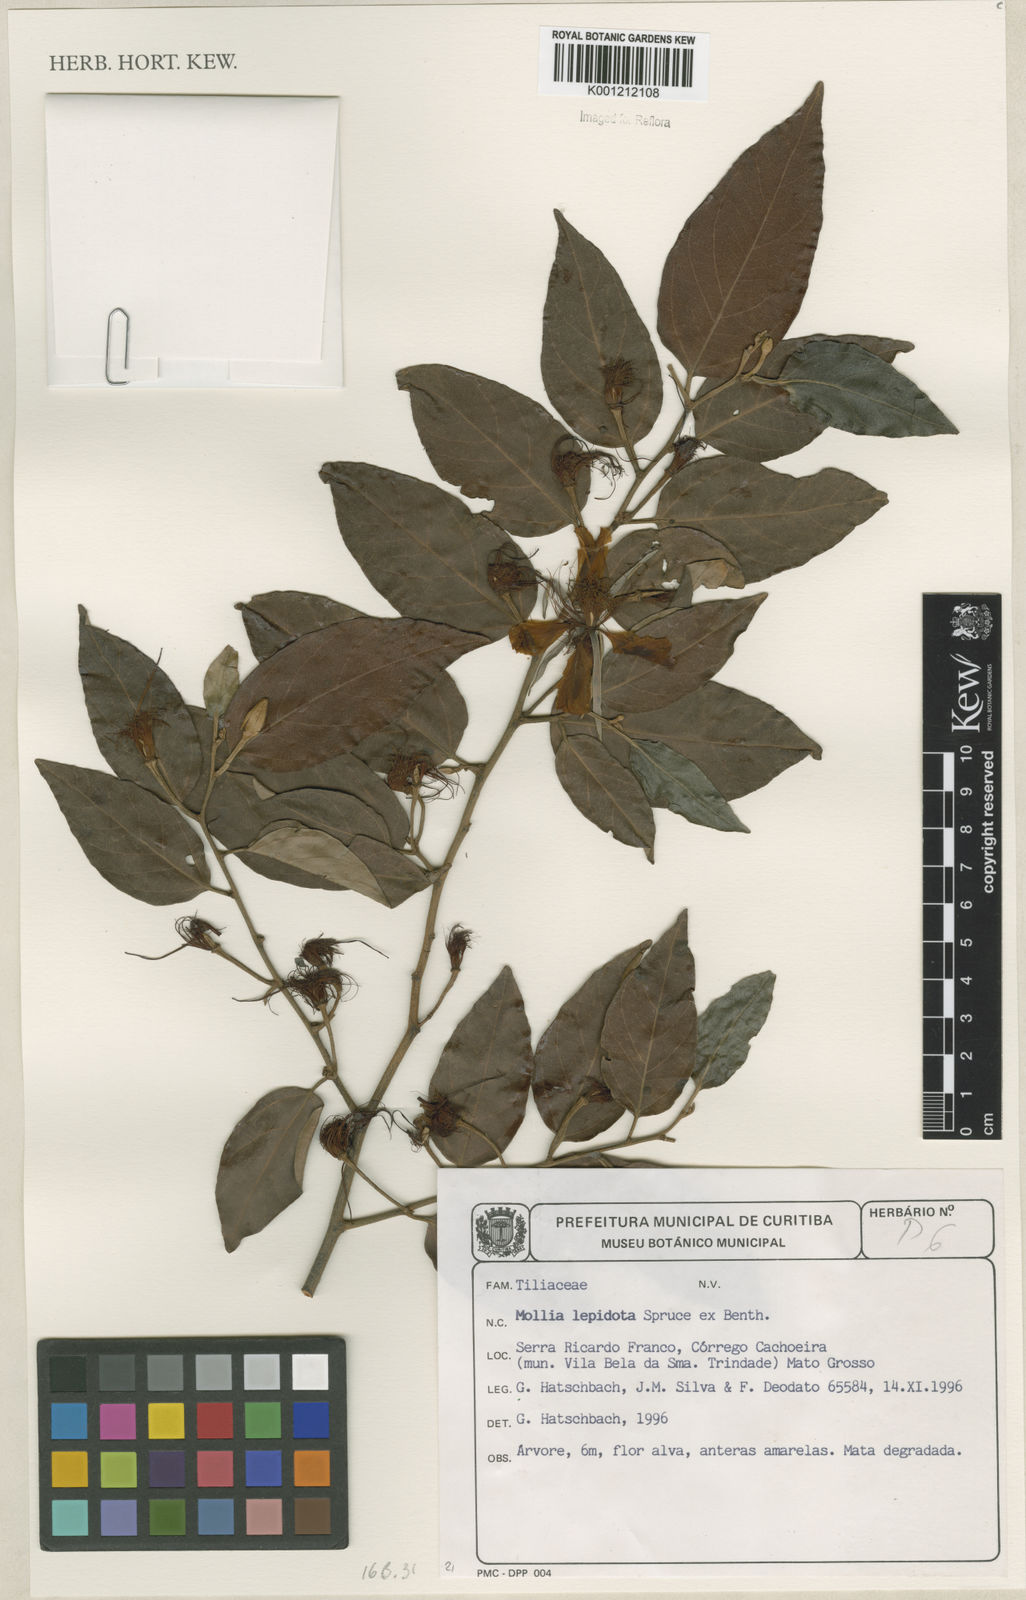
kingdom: Plantae
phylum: Tracheophyta
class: Magnoliopsida
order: Malvales
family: Malvaceae
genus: Mollia
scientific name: Mollia lepidota
